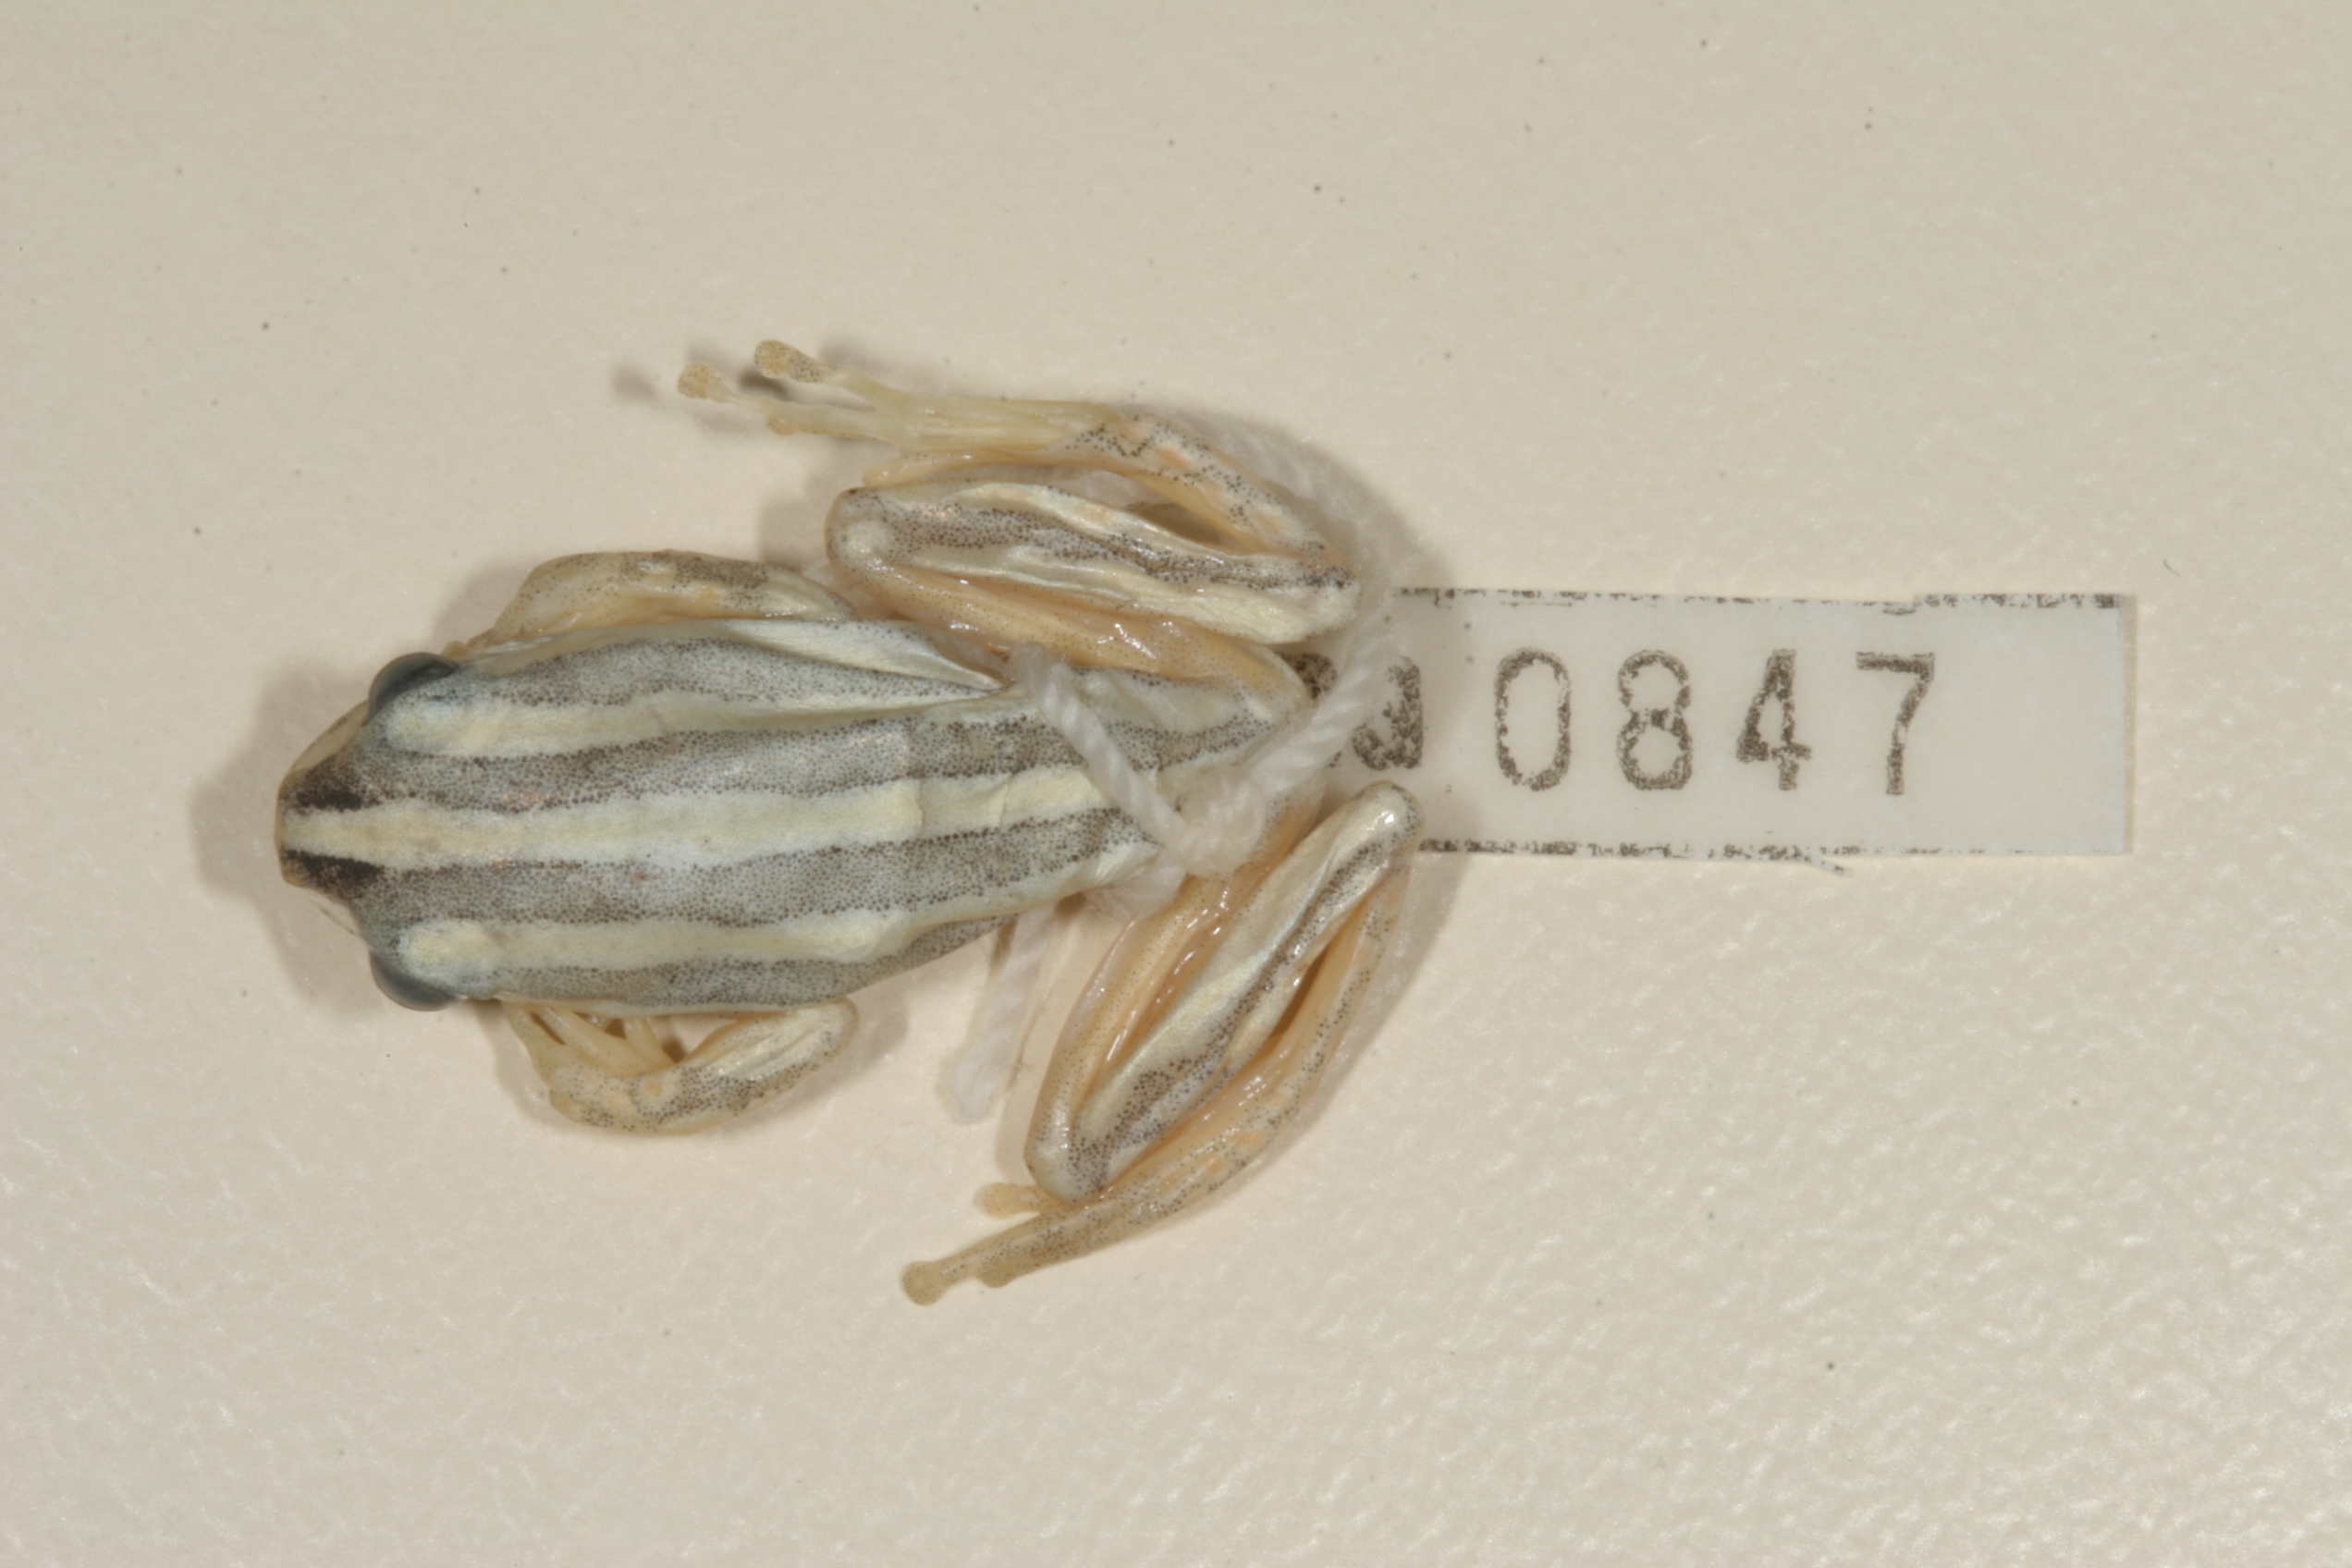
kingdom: Animalia
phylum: Chordata
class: Amphibia
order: Anura
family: Hyperoliidae
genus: Hyperolius
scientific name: Hyperolius marmoratus
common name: Painted reed frog
